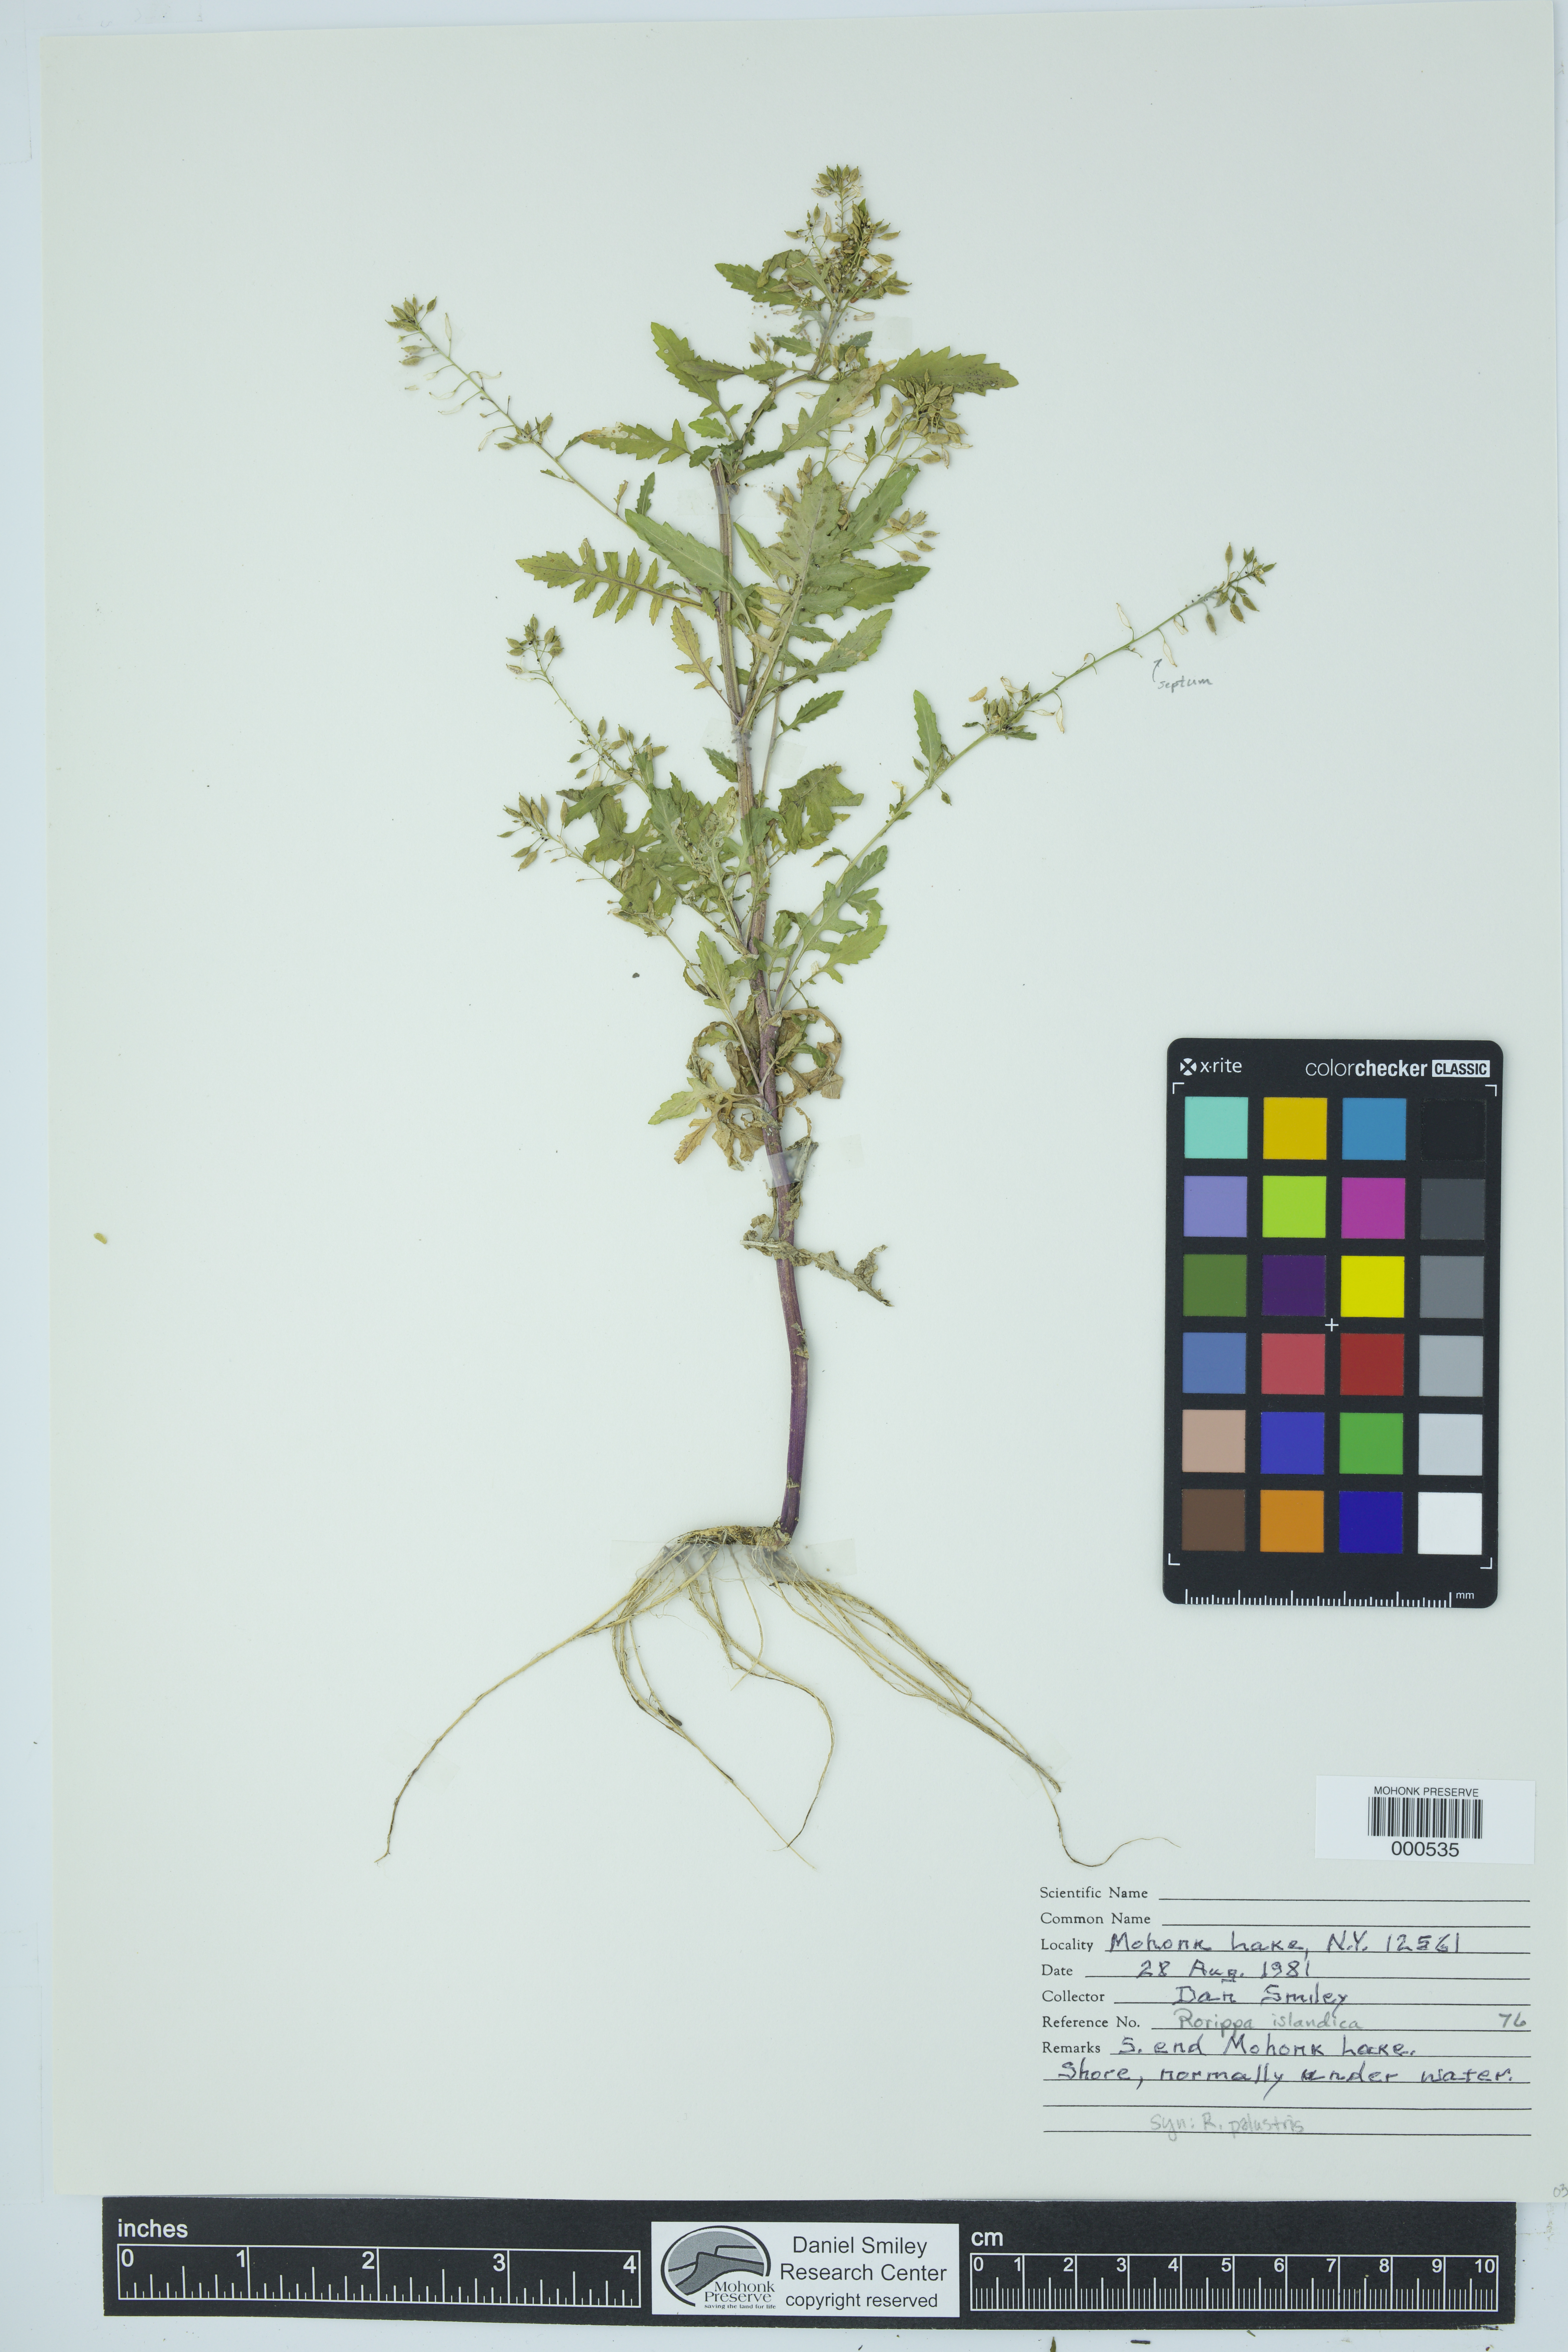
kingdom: Plantae
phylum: Tracheophyta
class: Magnoliopsida
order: Brassicales
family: Brassicaceae
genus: Rorippa
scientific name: Rorippa islandica
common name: Marsh cress
